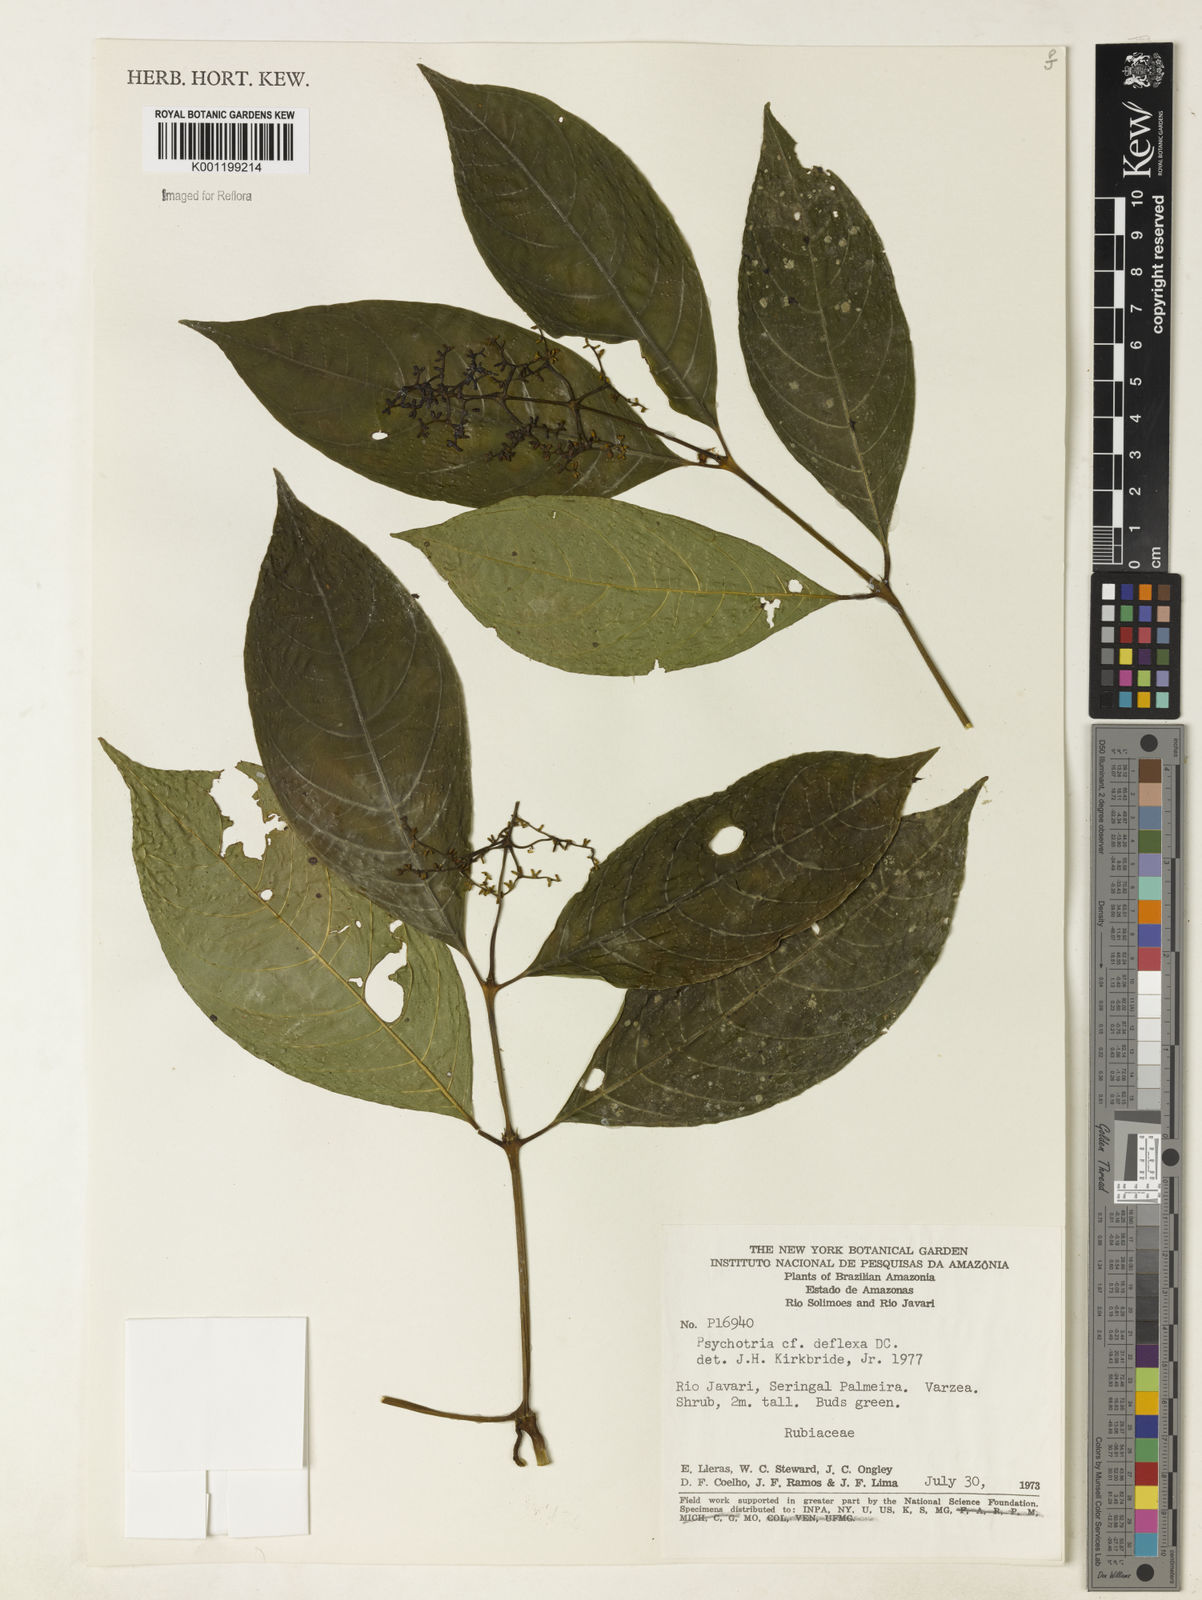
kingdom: Plantae
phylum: Tracheophyta
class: Magnoliopsida
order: Gentianales
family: Rubiaceae
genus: Palicourea
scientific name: Palicourea subundulata
